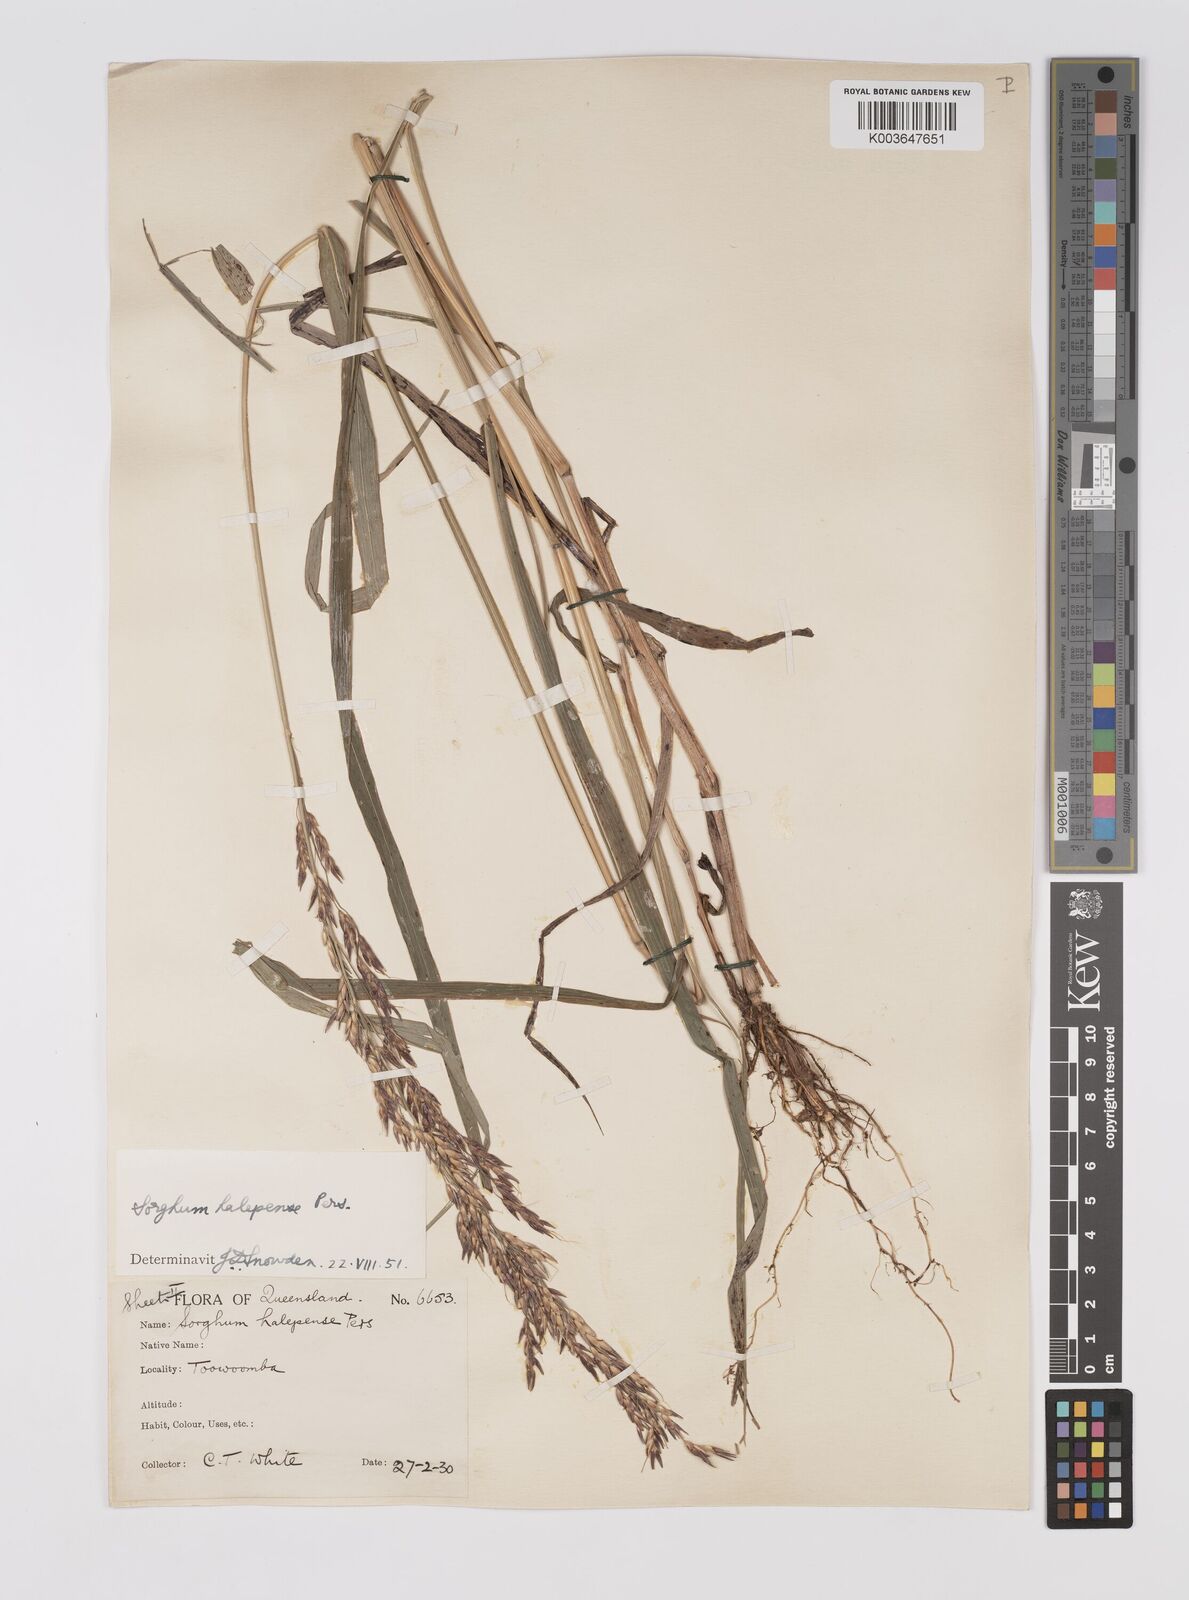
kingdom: Plantae
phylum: Tracheophyta
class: Liliopsida
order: Poales
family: Poaceae
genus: Sorghum
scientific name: Sorghum halepense
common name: Johnson-grass
